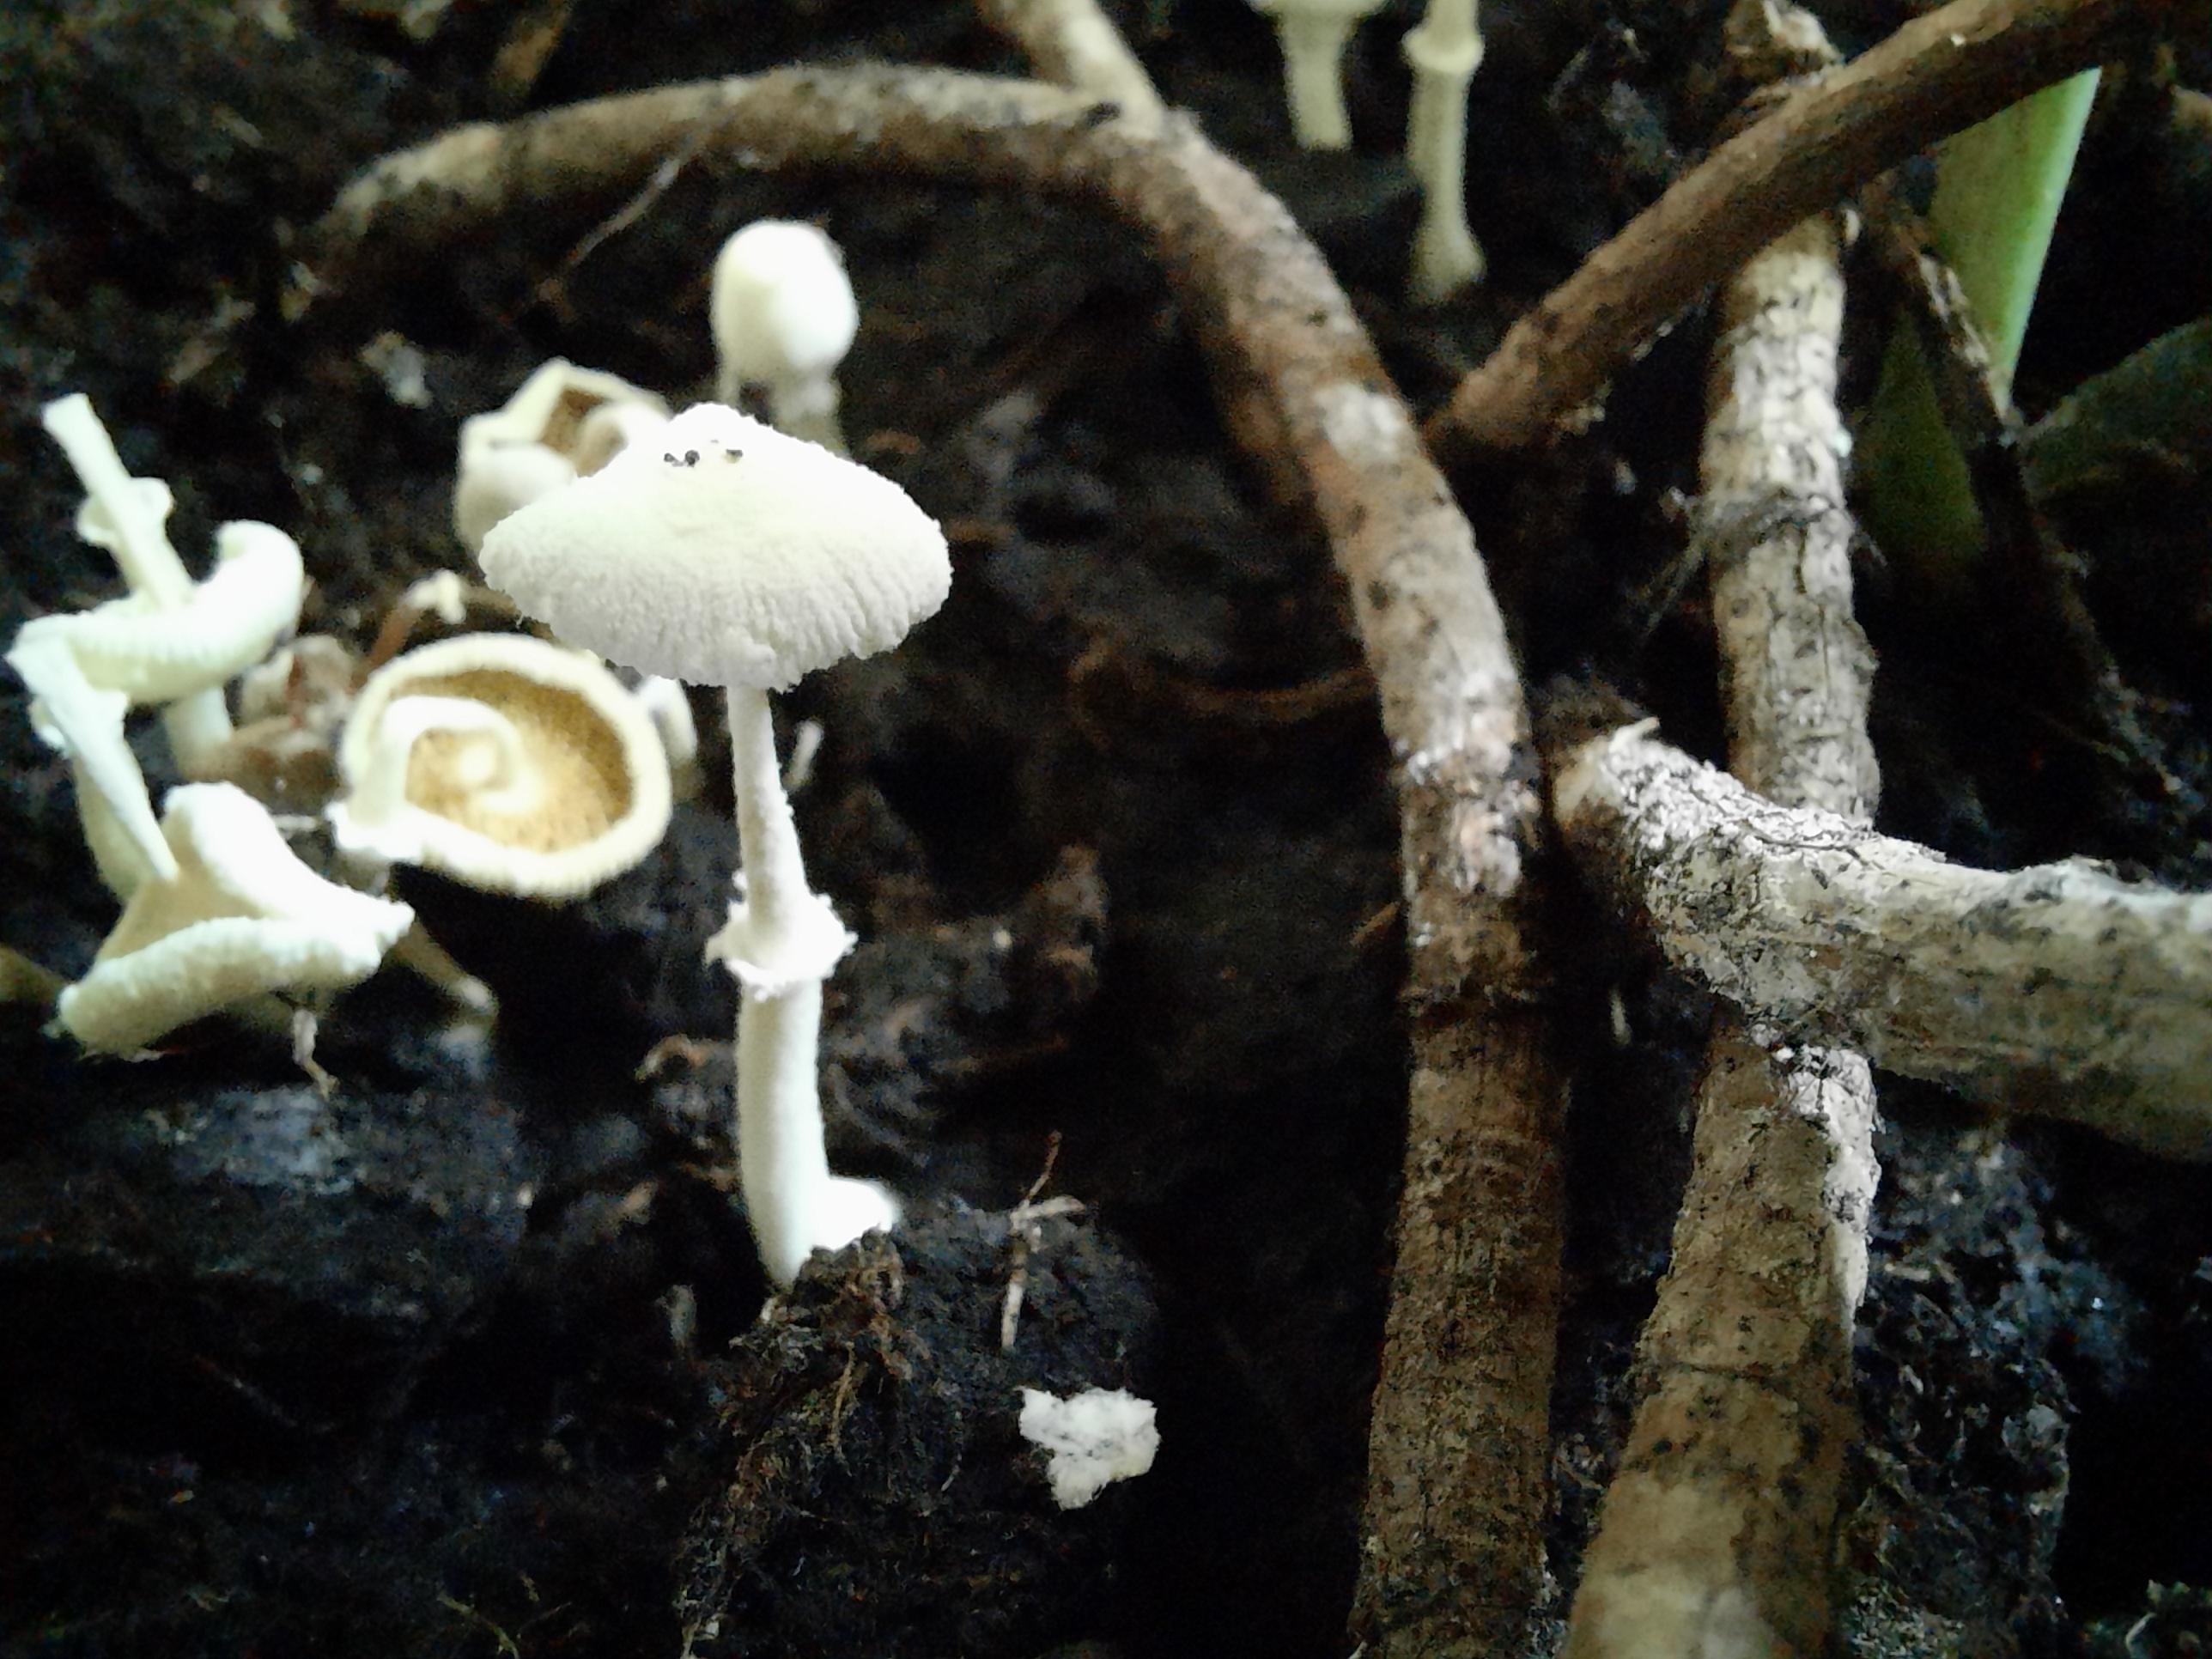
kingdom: Fungi
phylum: Basidiomycota
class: Agaricomycetes
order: Agaricales
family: Agaricaceae
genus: Leucocoprinus
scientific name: Leucocoprinus
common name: silkehat
